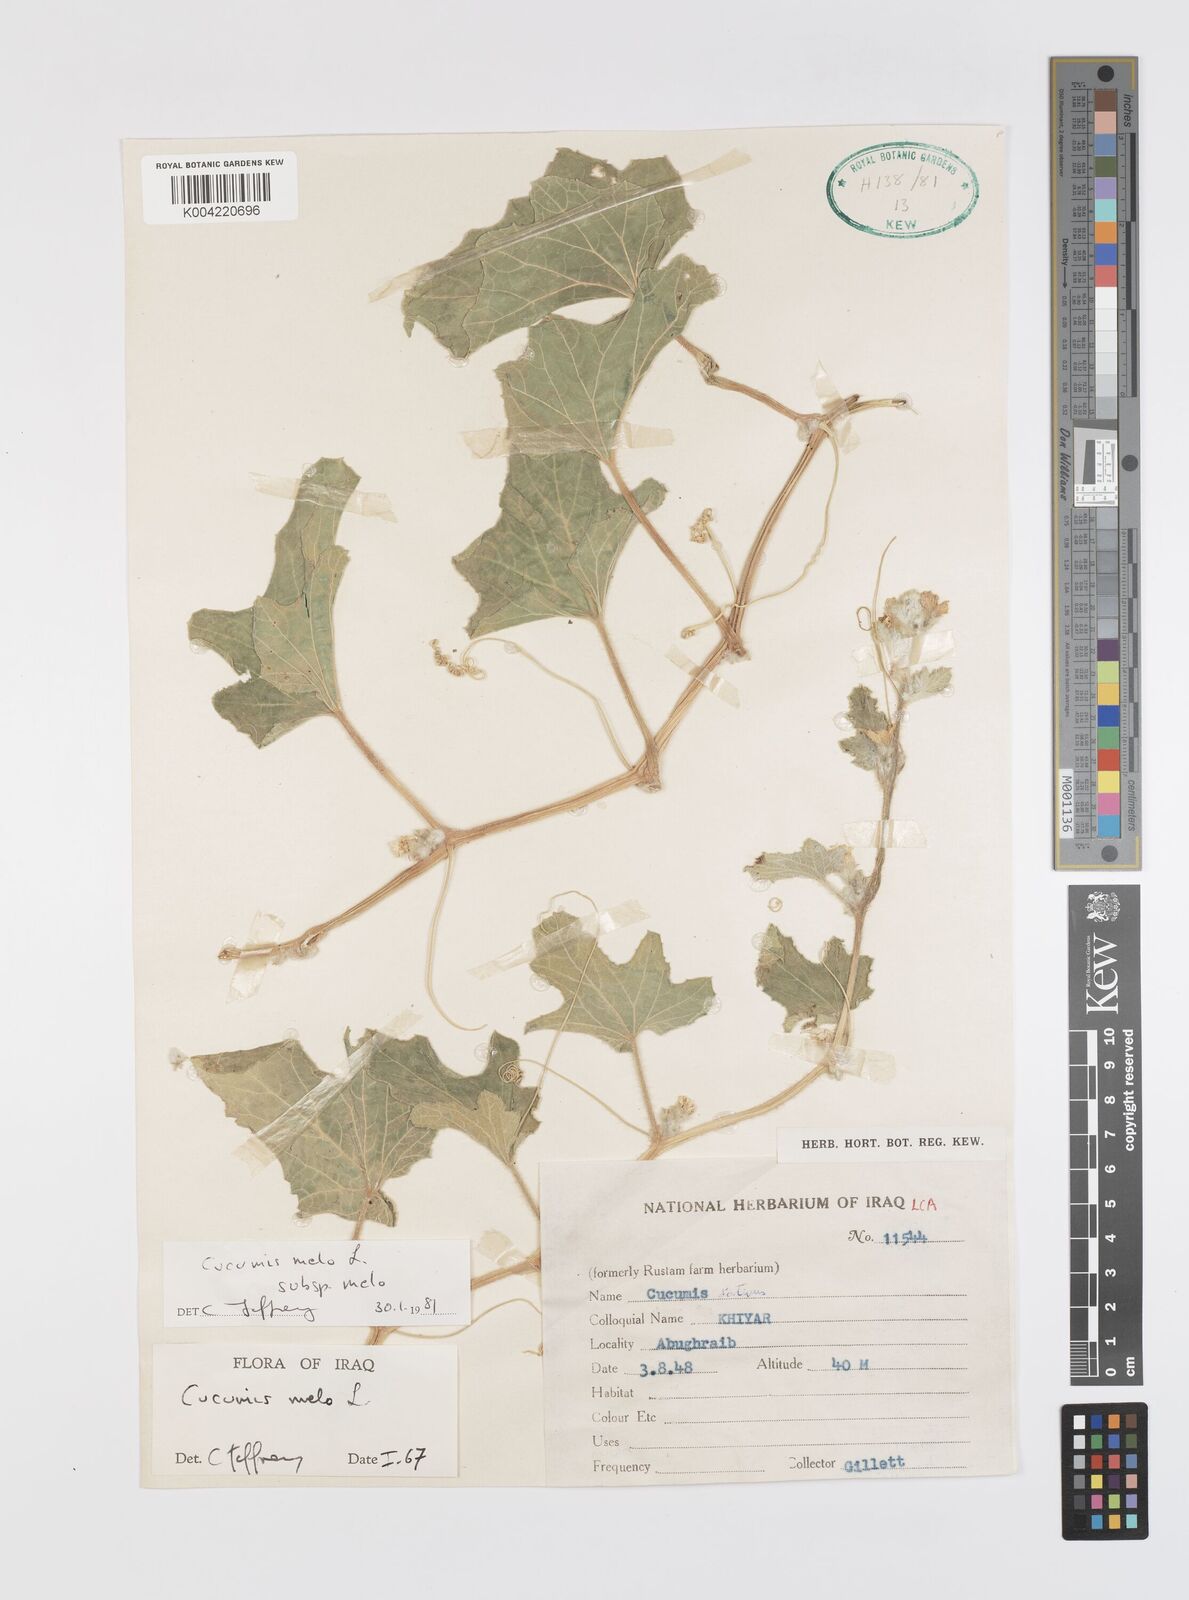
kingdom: Plantae
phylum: Tracheophyta
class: Magnoliopsida
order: Cucurbitales
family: Cucurbitaceae
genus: Cucumis
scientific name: Cucumis melo
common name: Melon
